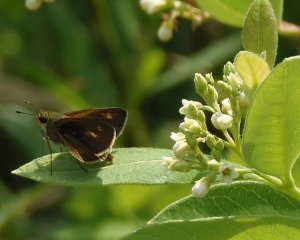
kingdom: Animalia
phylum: Arthropoda
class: Insecta
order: Lepidoptera
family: Hesperiidae
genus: Polites
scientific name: Polites egeremet
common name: Northern Broken-Dash
